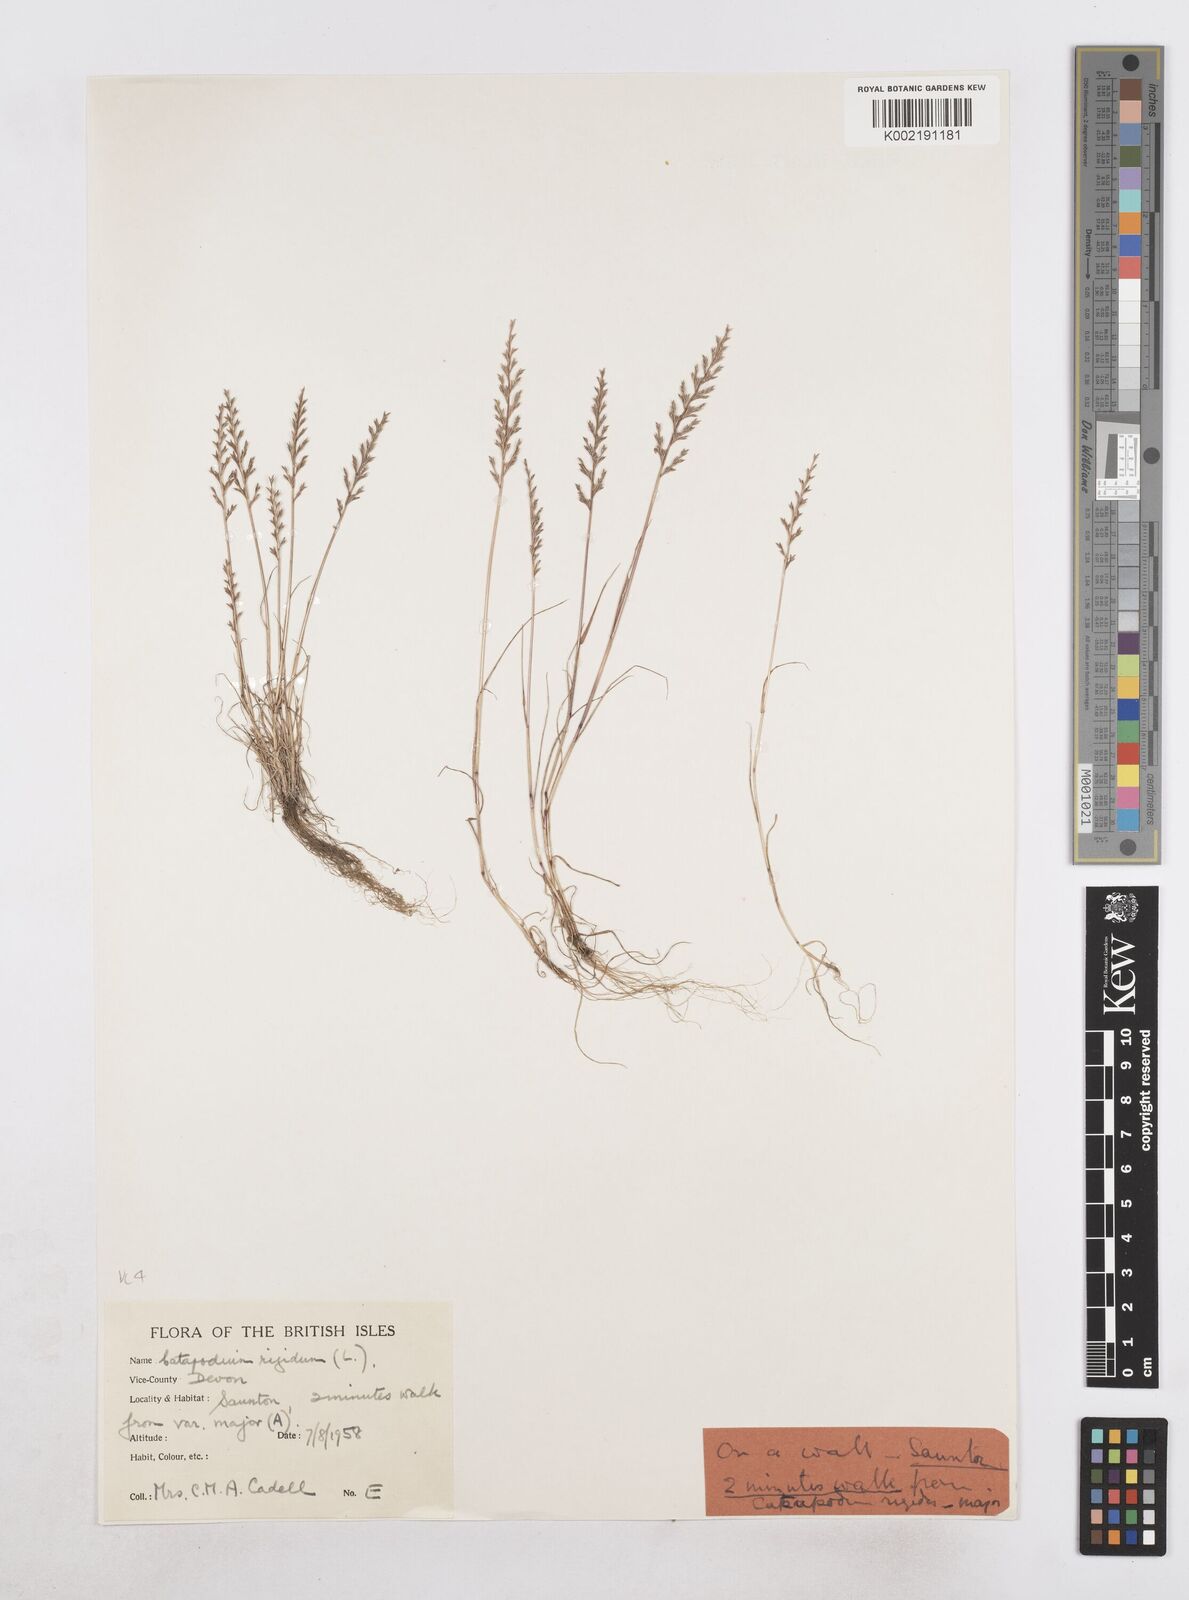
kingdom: Plantae
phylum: Tracheophyta
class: Liliopsida
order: Poales
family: Poaceae
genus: Catapodium
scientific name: Catapodium rigidum
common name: Fern-grass
